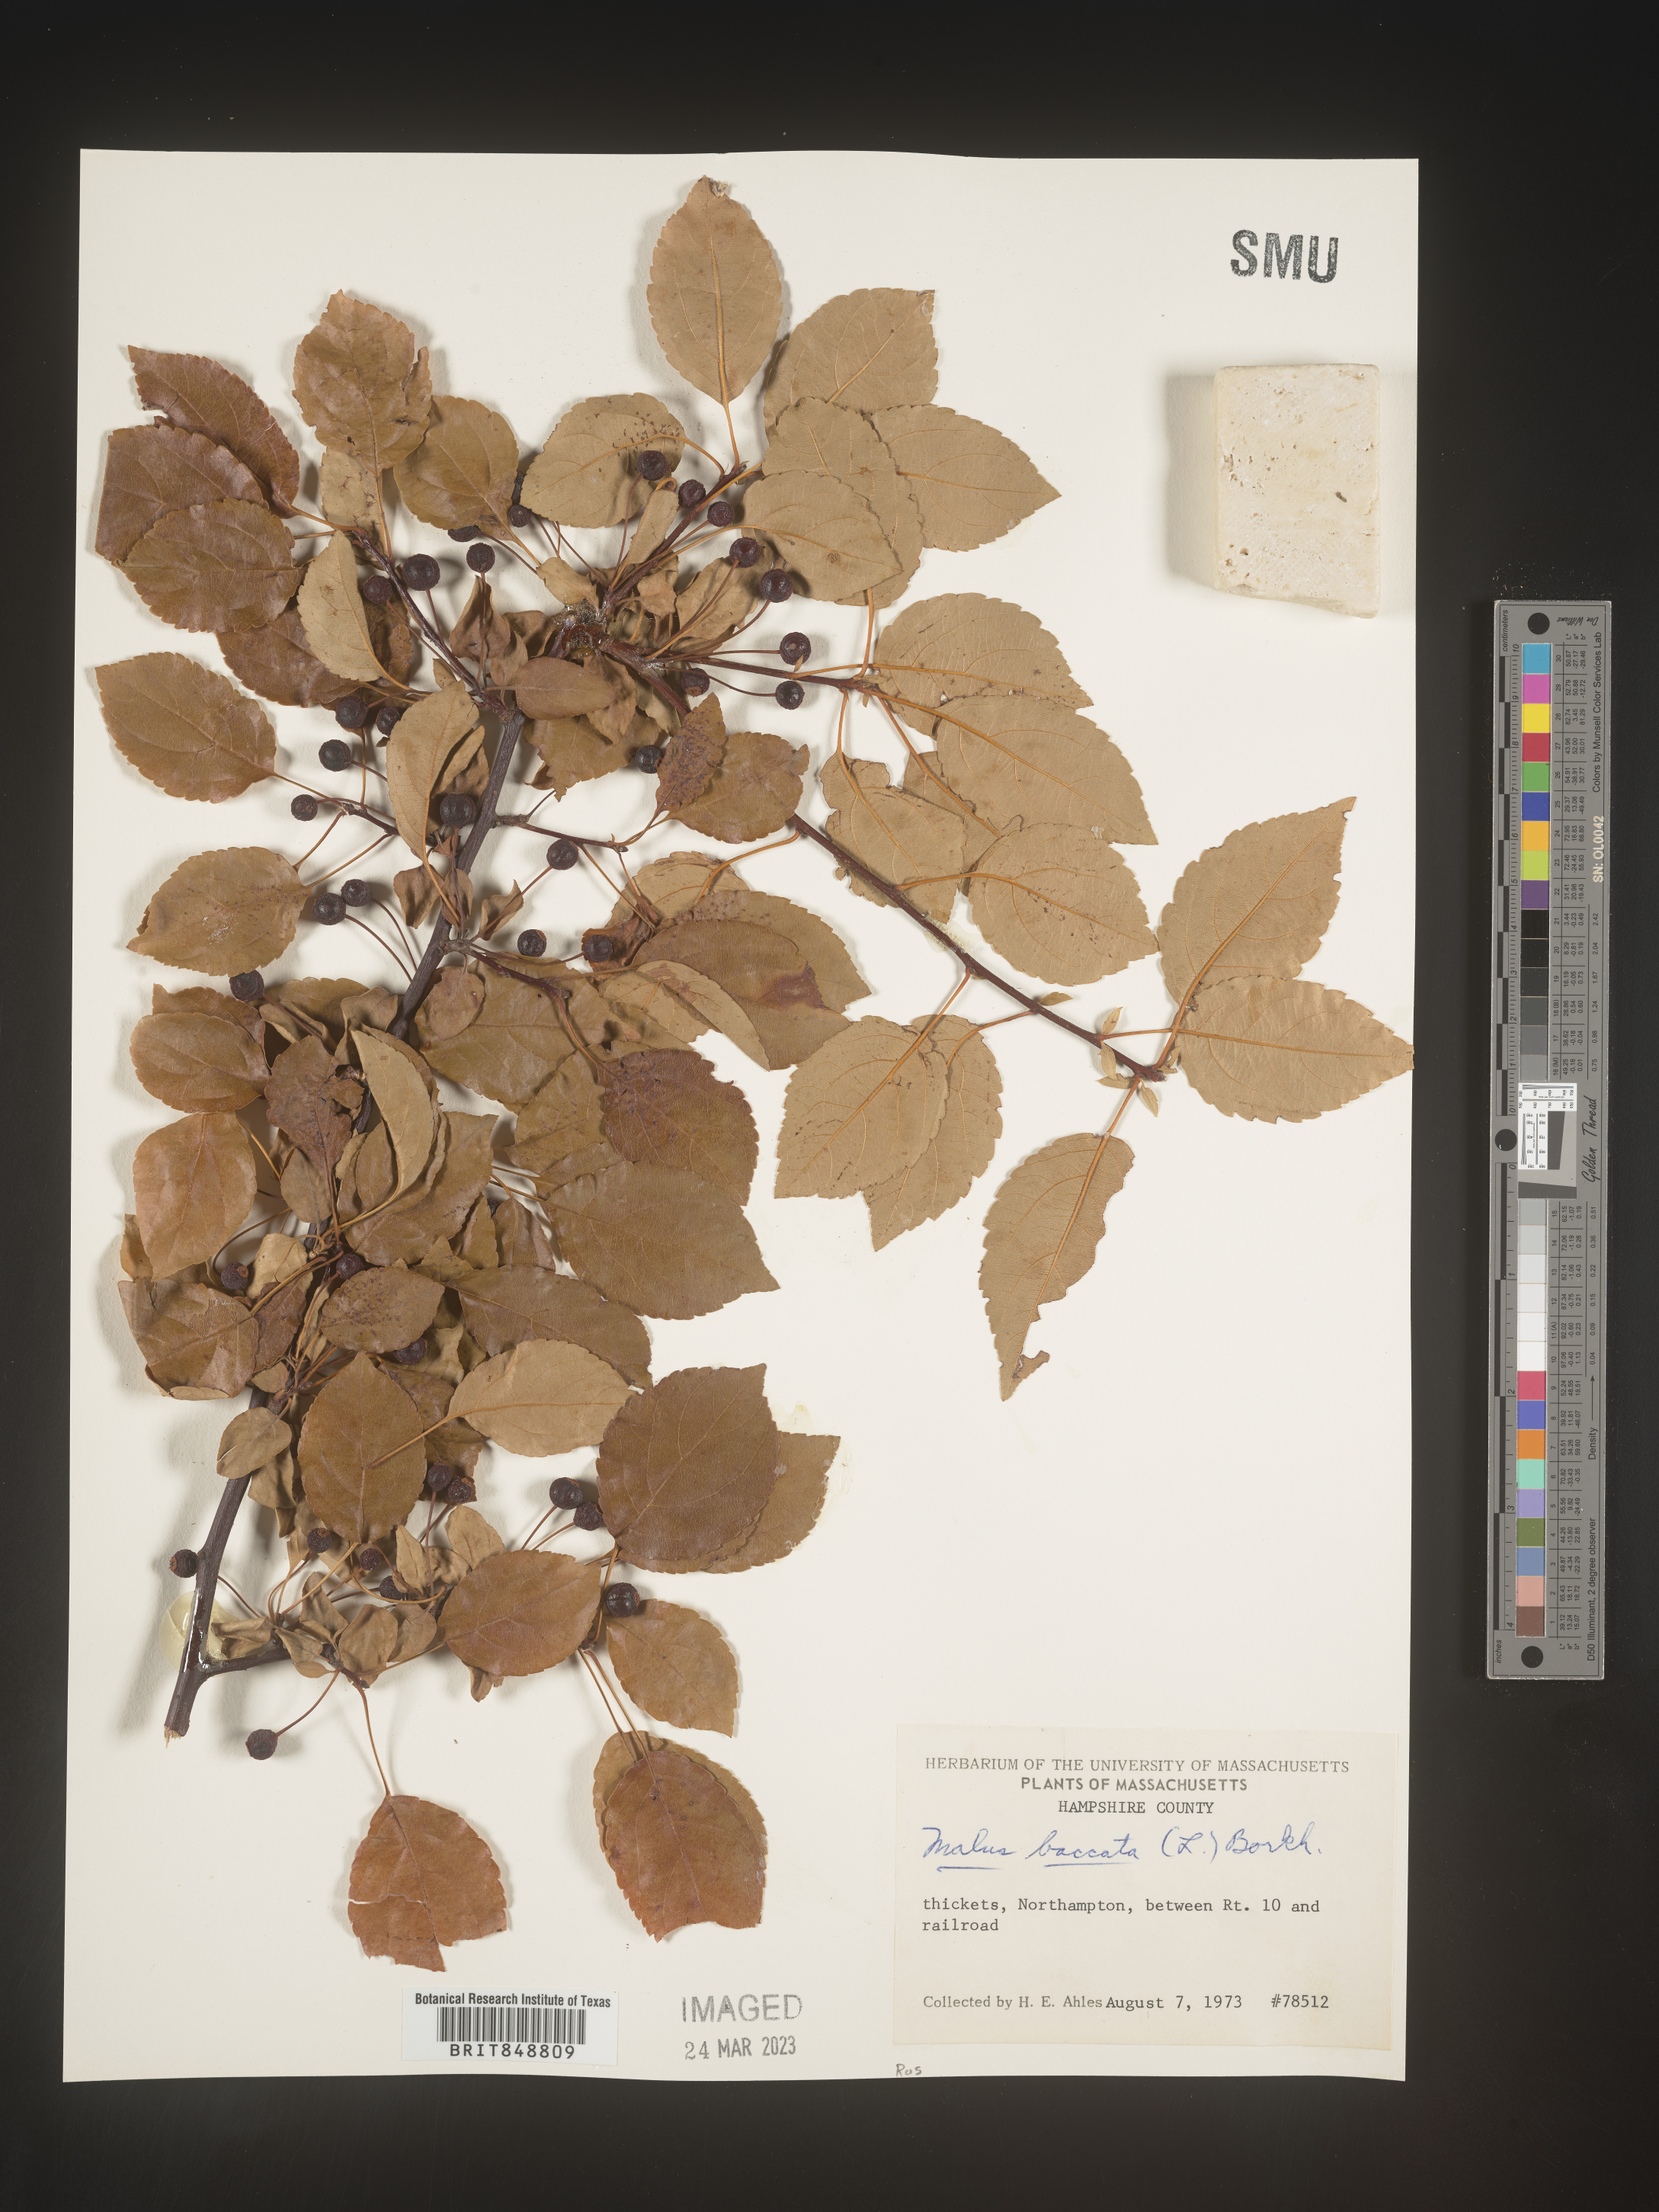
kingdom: Plantae
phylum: Tracheophyta
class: Magnoliopsida
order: Rosales
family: Rosaceae
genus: Malus
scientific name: Malus
